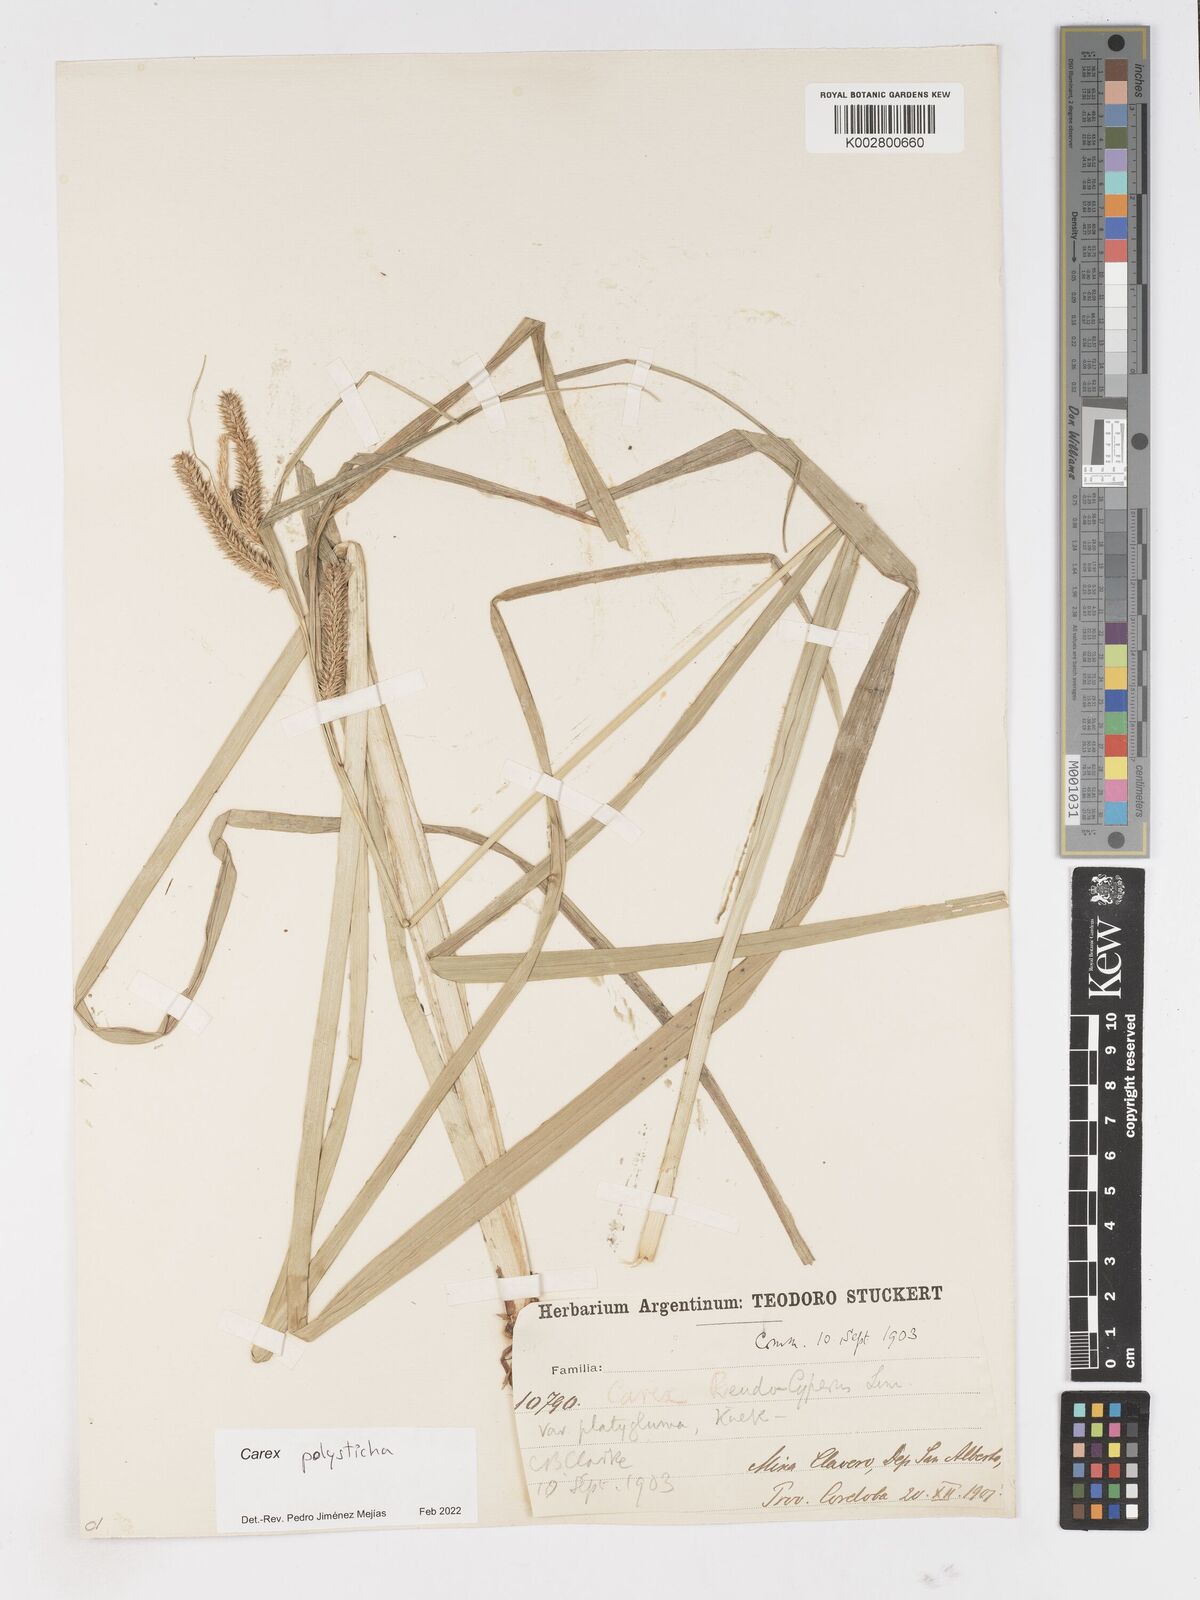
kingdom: Plantae
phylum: Tracheophyta
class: Liliopsida
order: Poales
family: Cyperaceae
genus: Carex
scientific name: Carex polysticha
